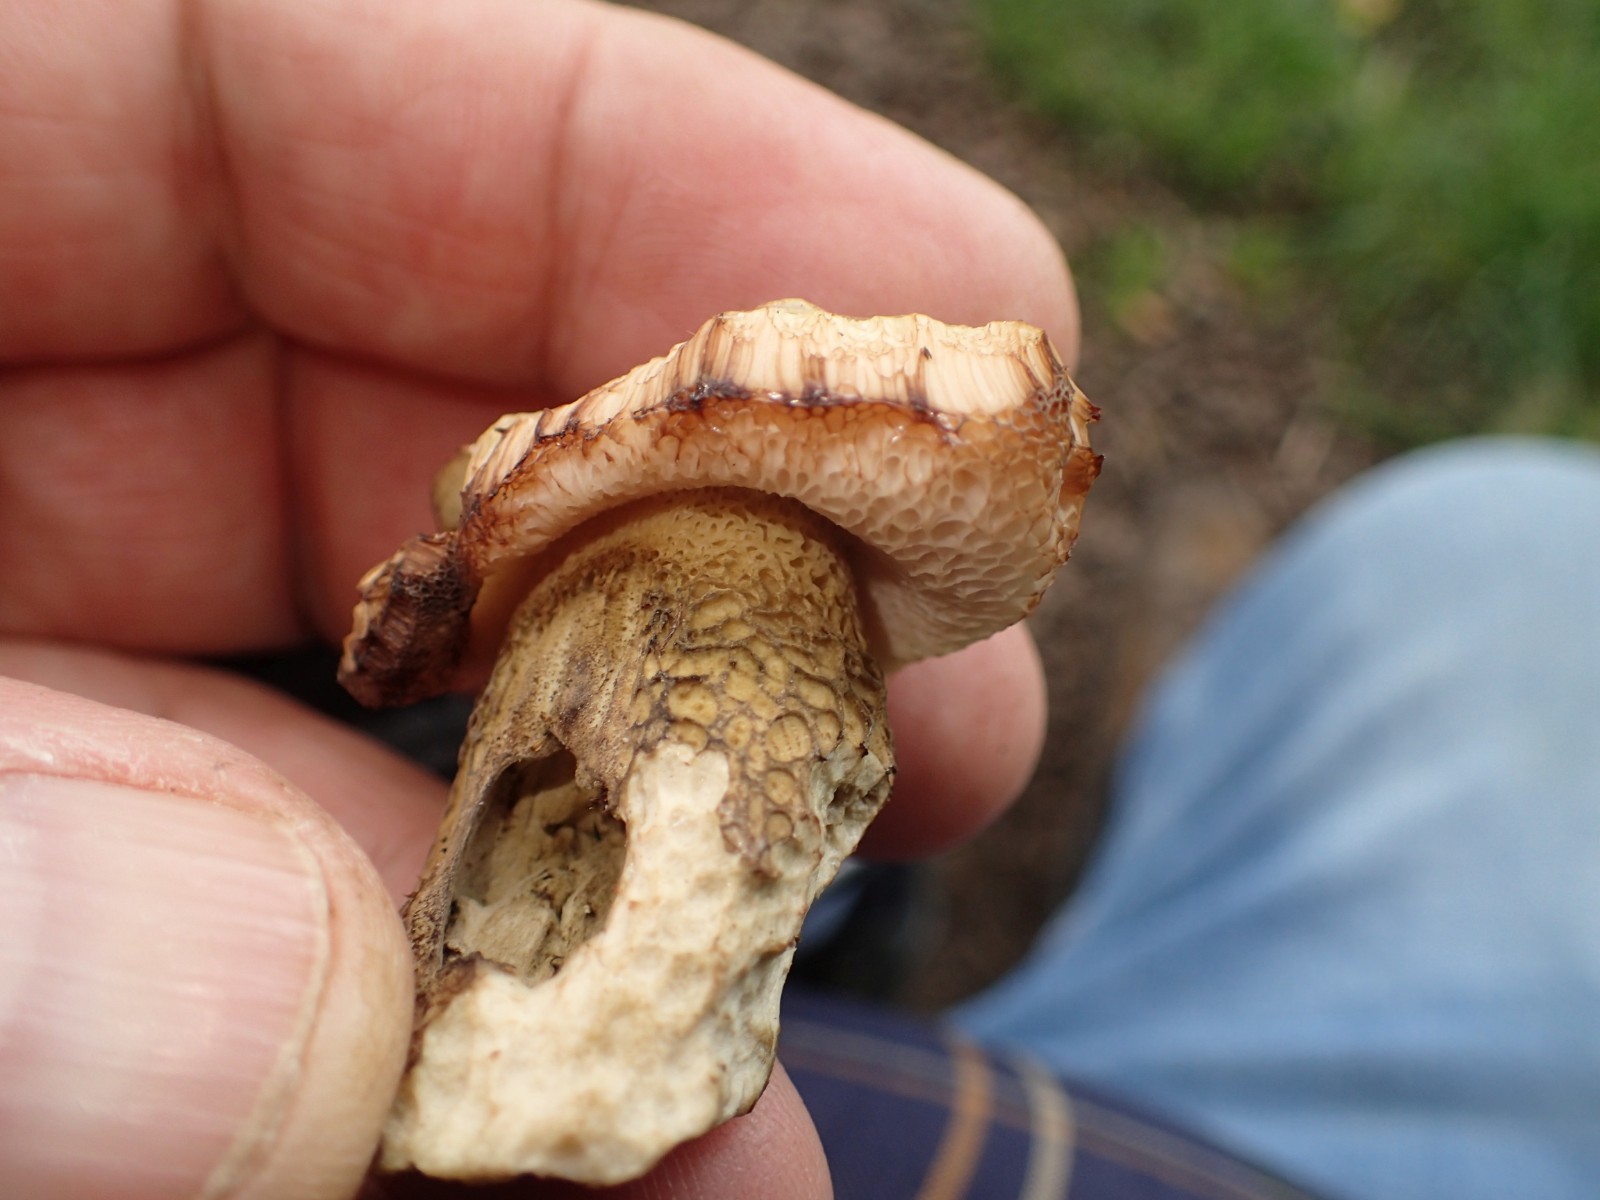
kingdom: Fungi
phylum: Basidiomycota
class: Agaricomycetes
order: Boletales
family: Boletaceae
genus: Tylopilus
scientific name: Tylopilus felleus
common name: galderørhat
